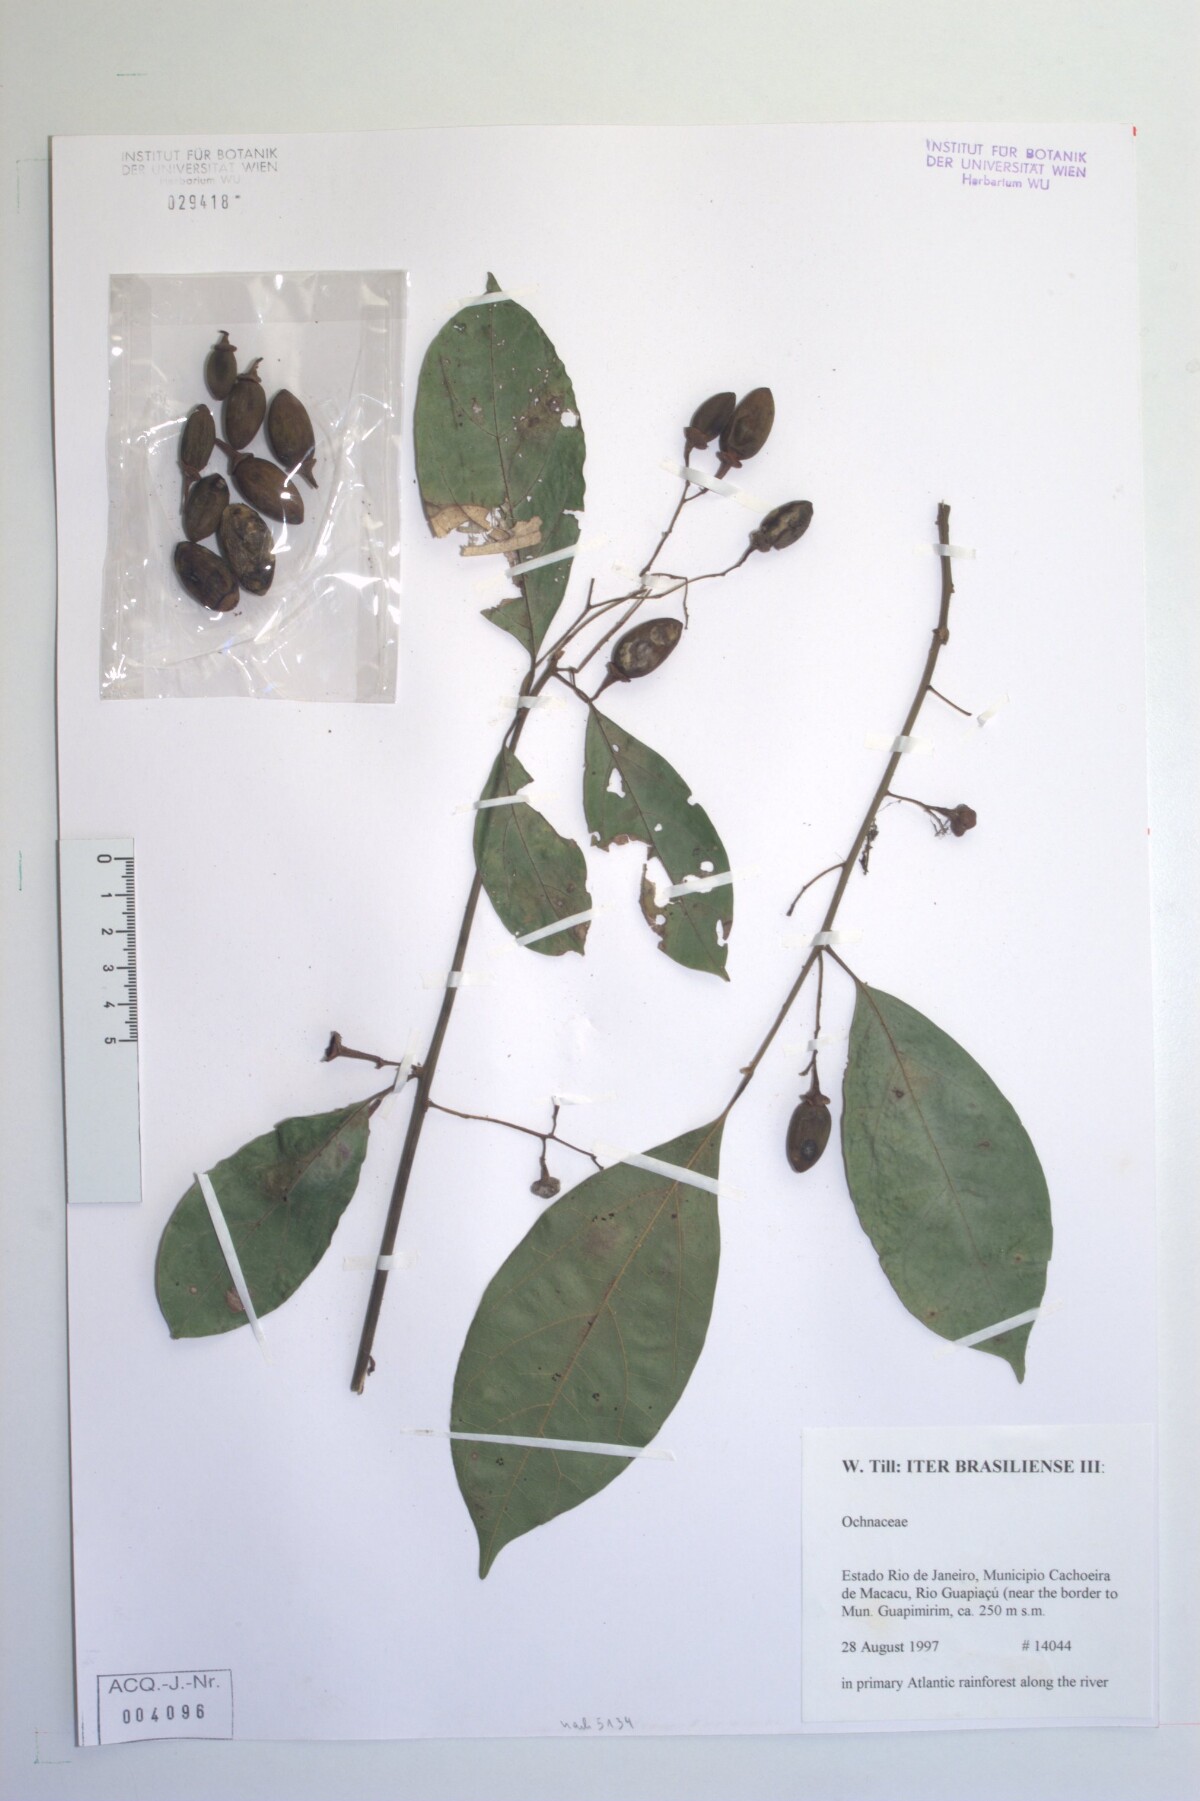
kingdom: Plantae
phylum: Tracheophyta
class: Magnoliopsida
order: Laurales
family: Lauraceae
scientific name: Lauraceae
